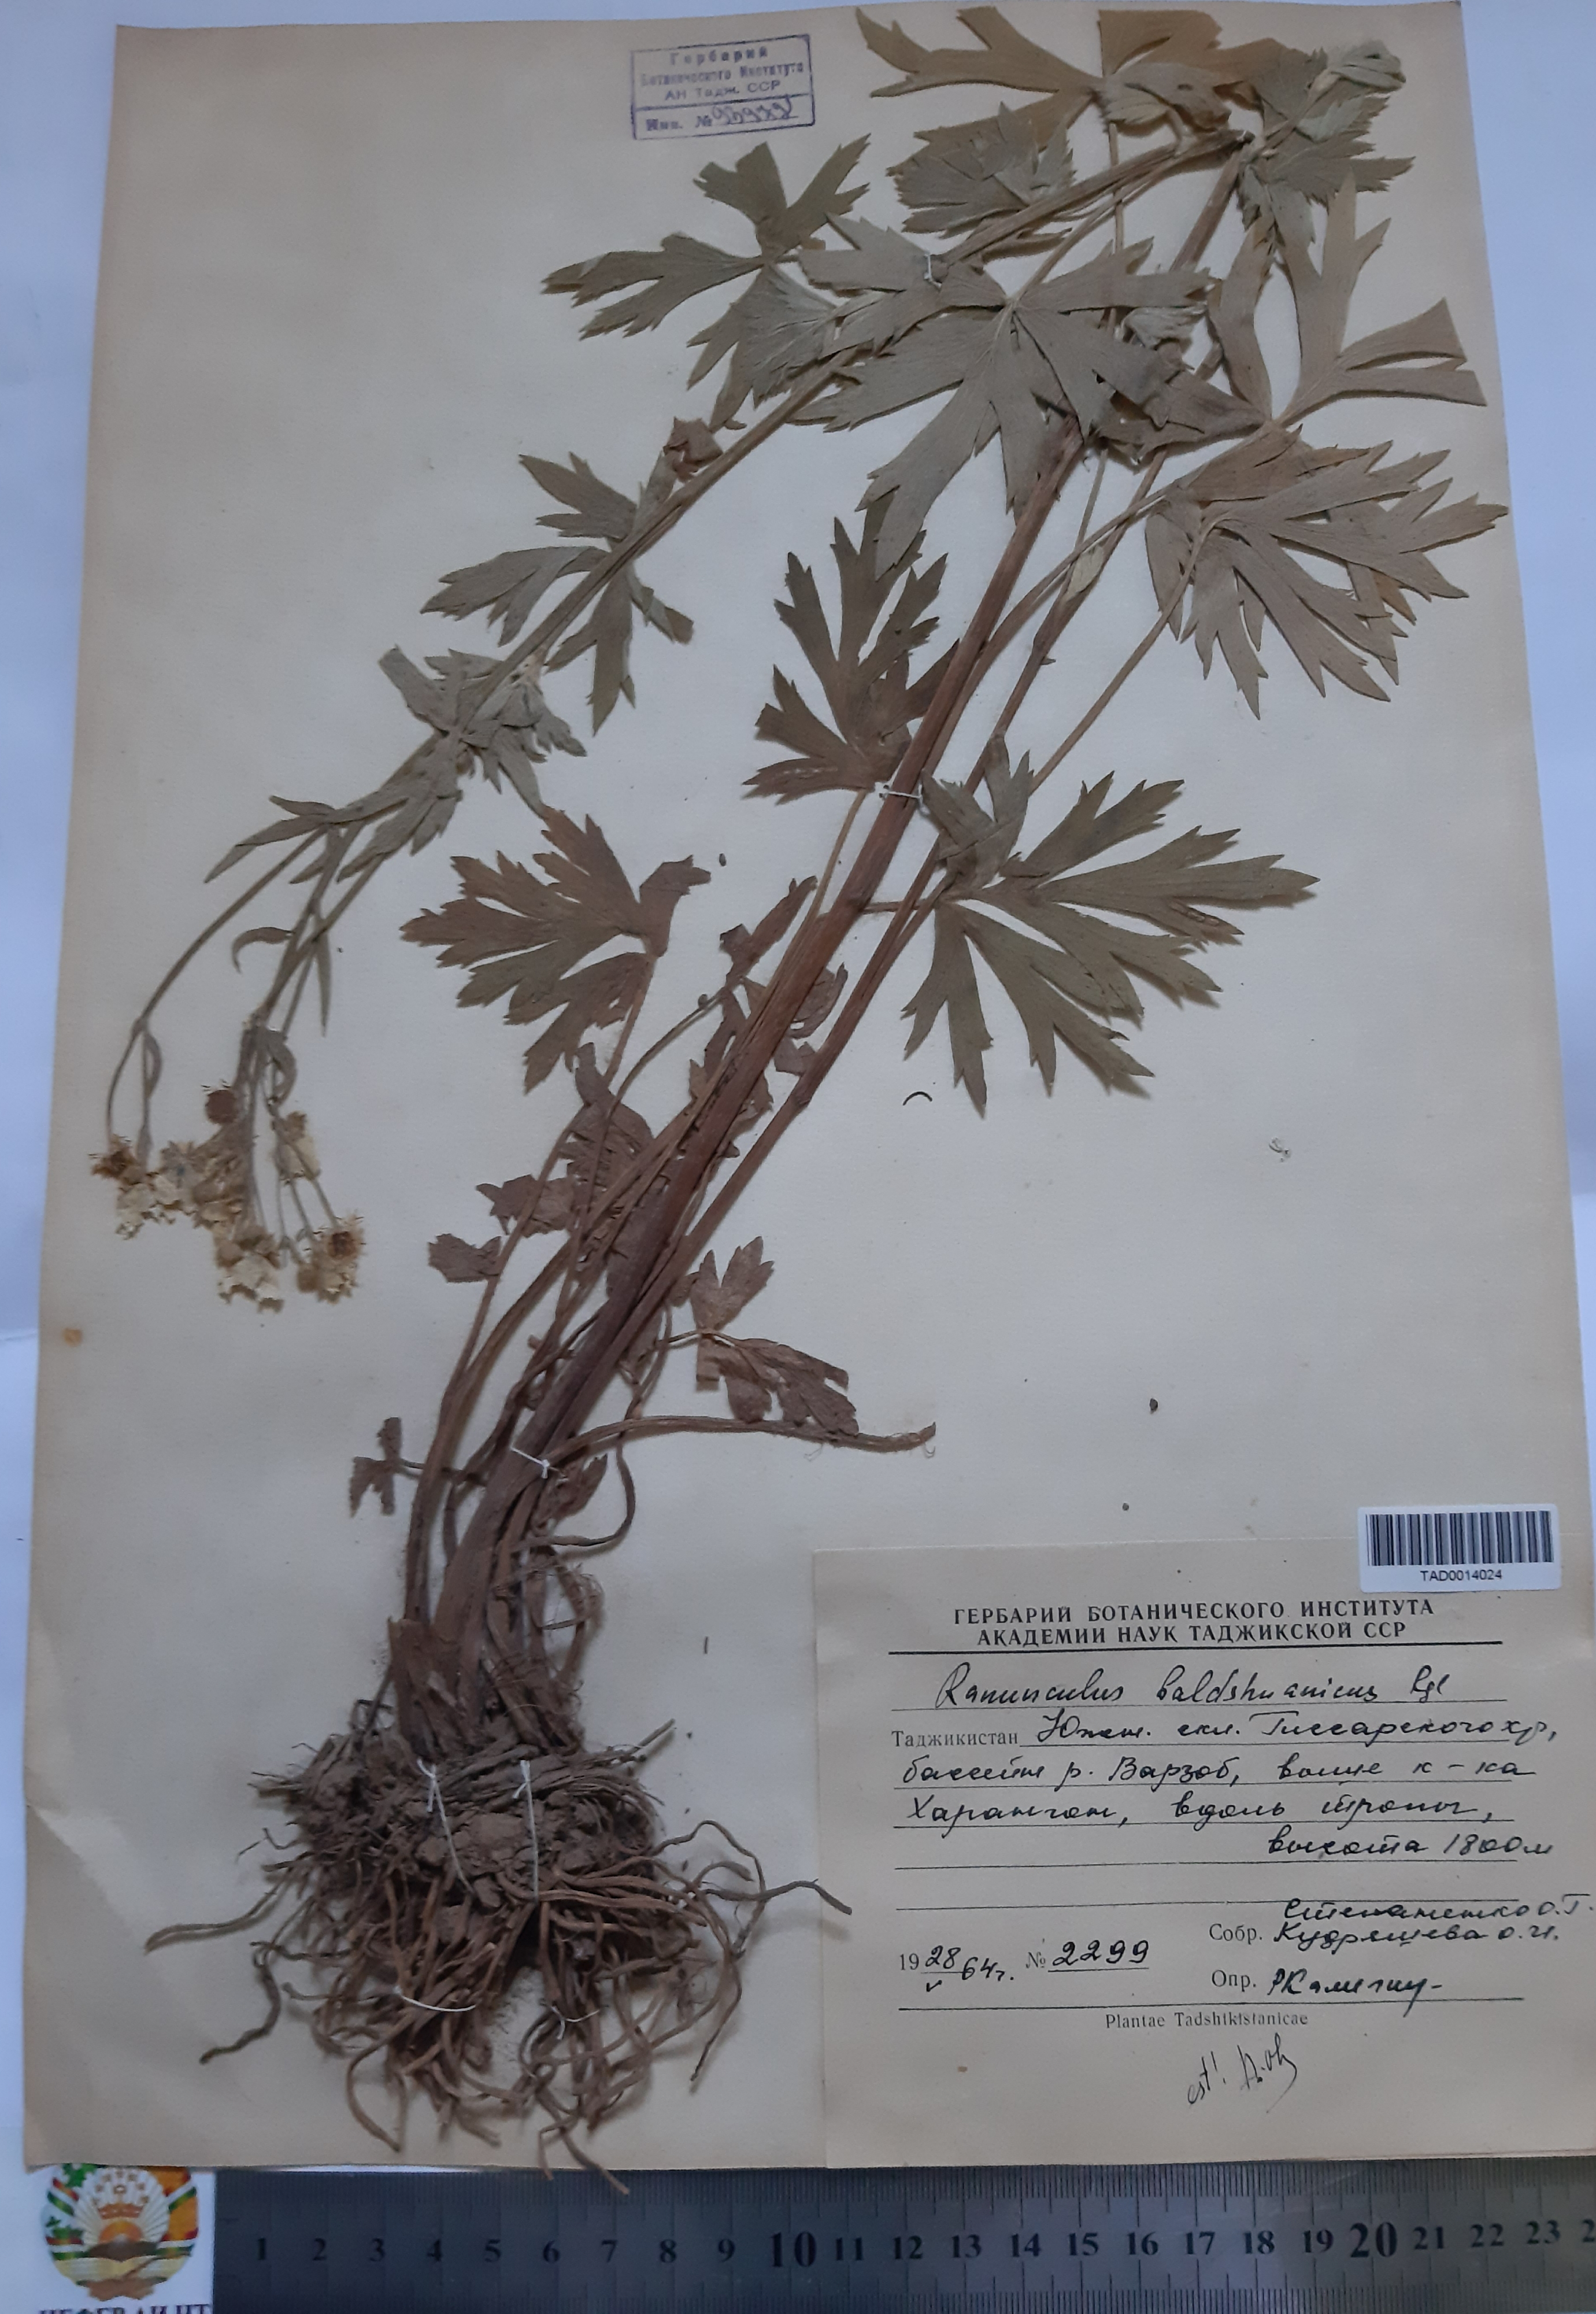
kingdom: Plantae
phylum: Tracheophyta
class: Magnoliopsida
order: Ranunculales
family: Ranunculaceae
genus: Ranunculus
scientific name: Ranunculus baldshuanicus
